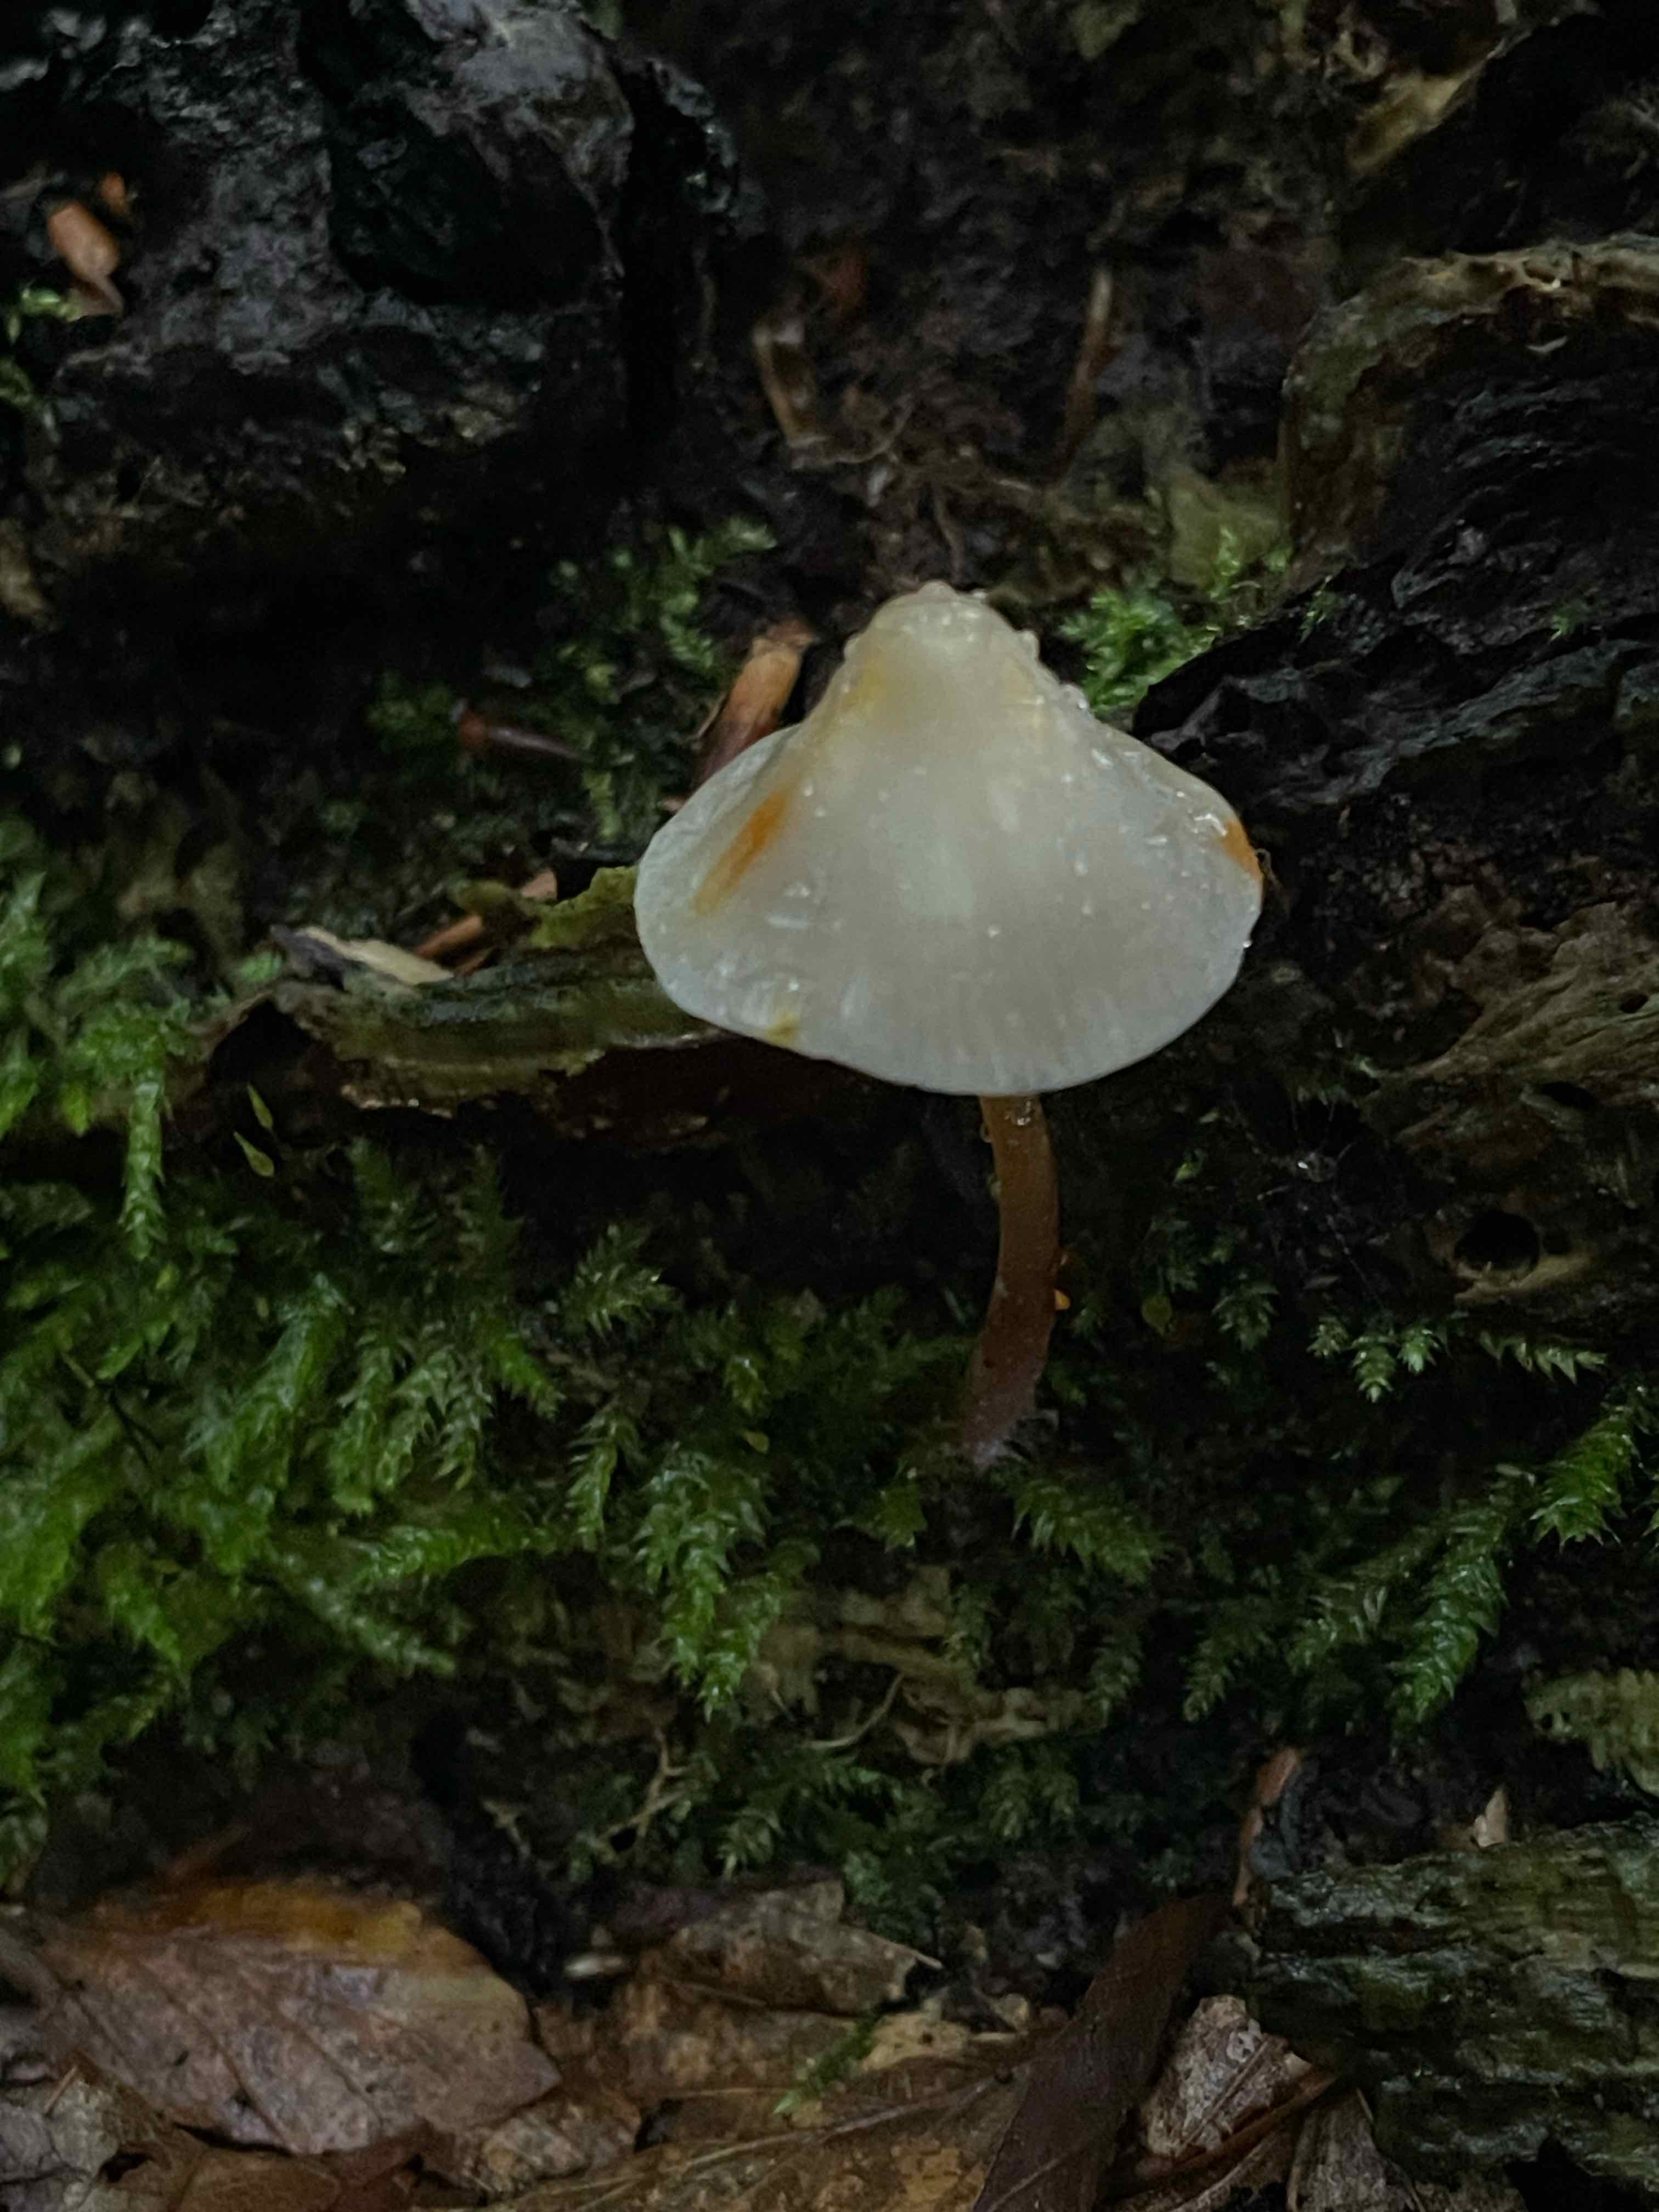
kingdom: Fungi
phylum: Basidiomycota
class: Agaricomycetes
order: Agaricales
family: Mycenaceae
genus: Mycena
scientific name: Mycena crocata
